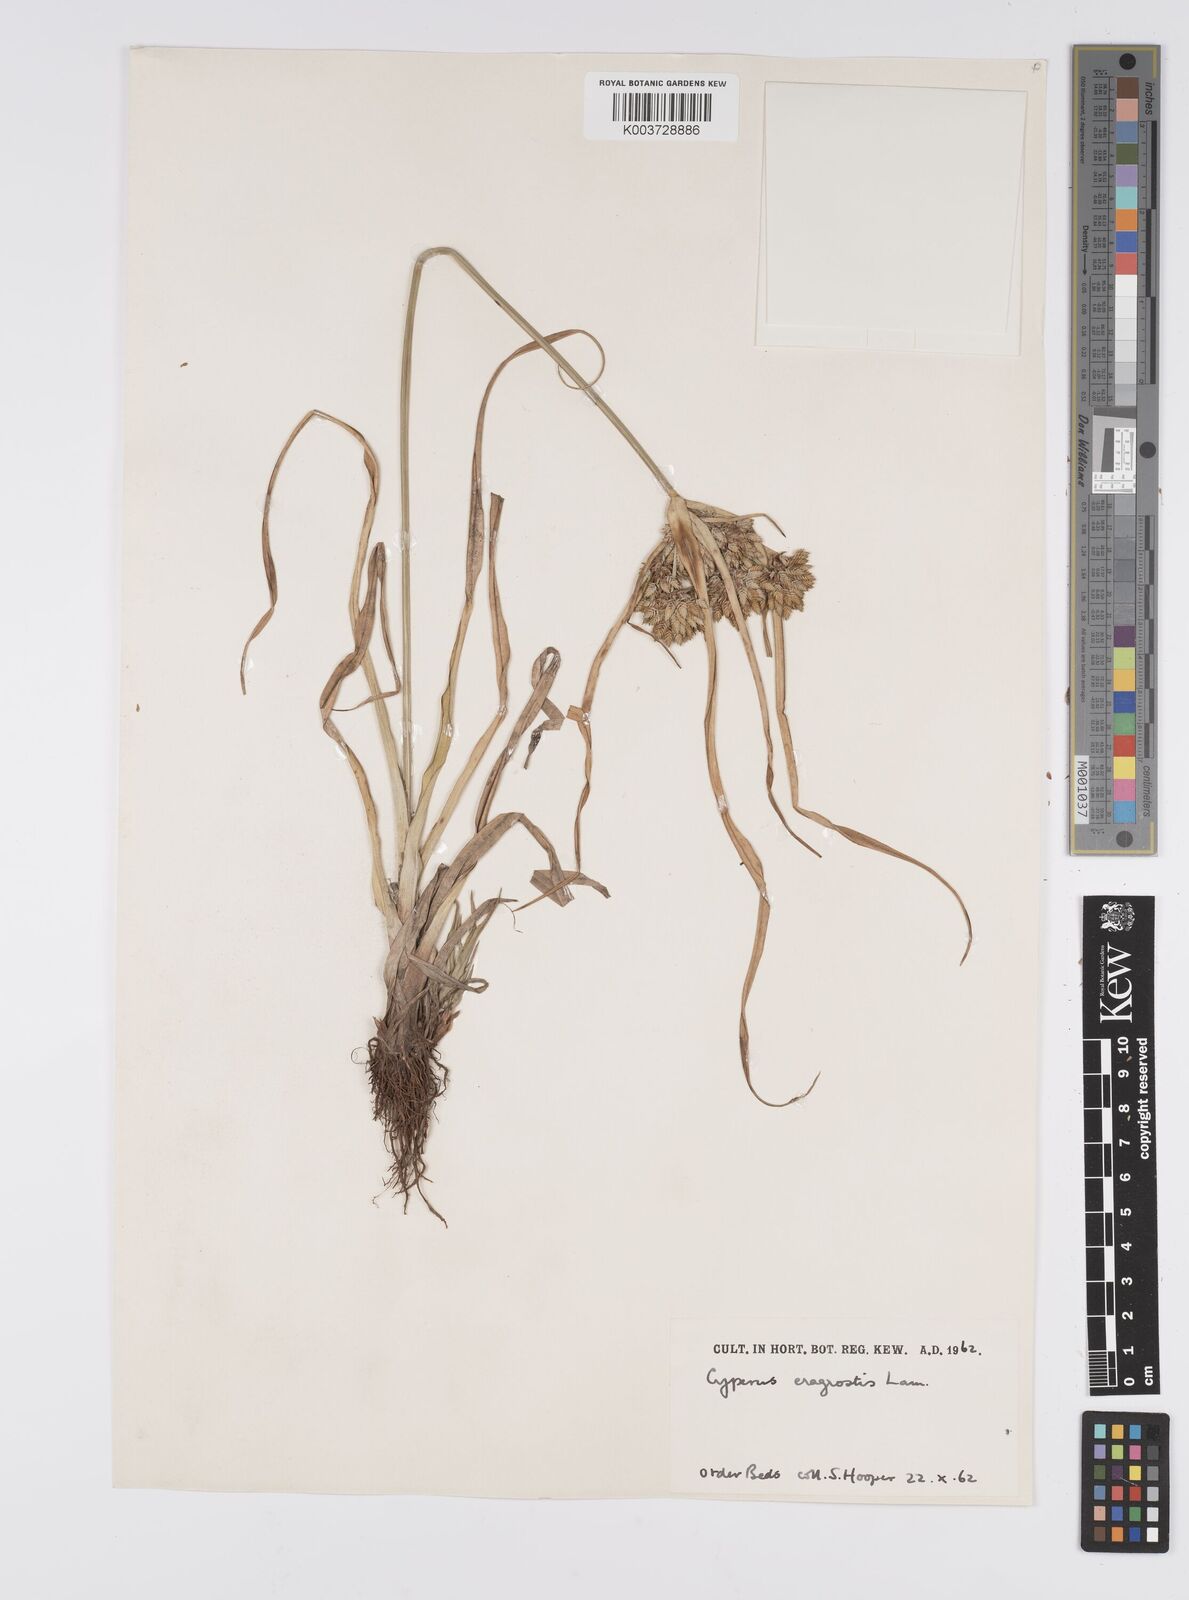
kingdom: Plantae
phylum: Tracheophyta
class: Liliopsida
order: Poales
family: Cyperaceae
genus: Cyperus
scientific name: Cyperus eragrostis
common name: Tall flatsedge
